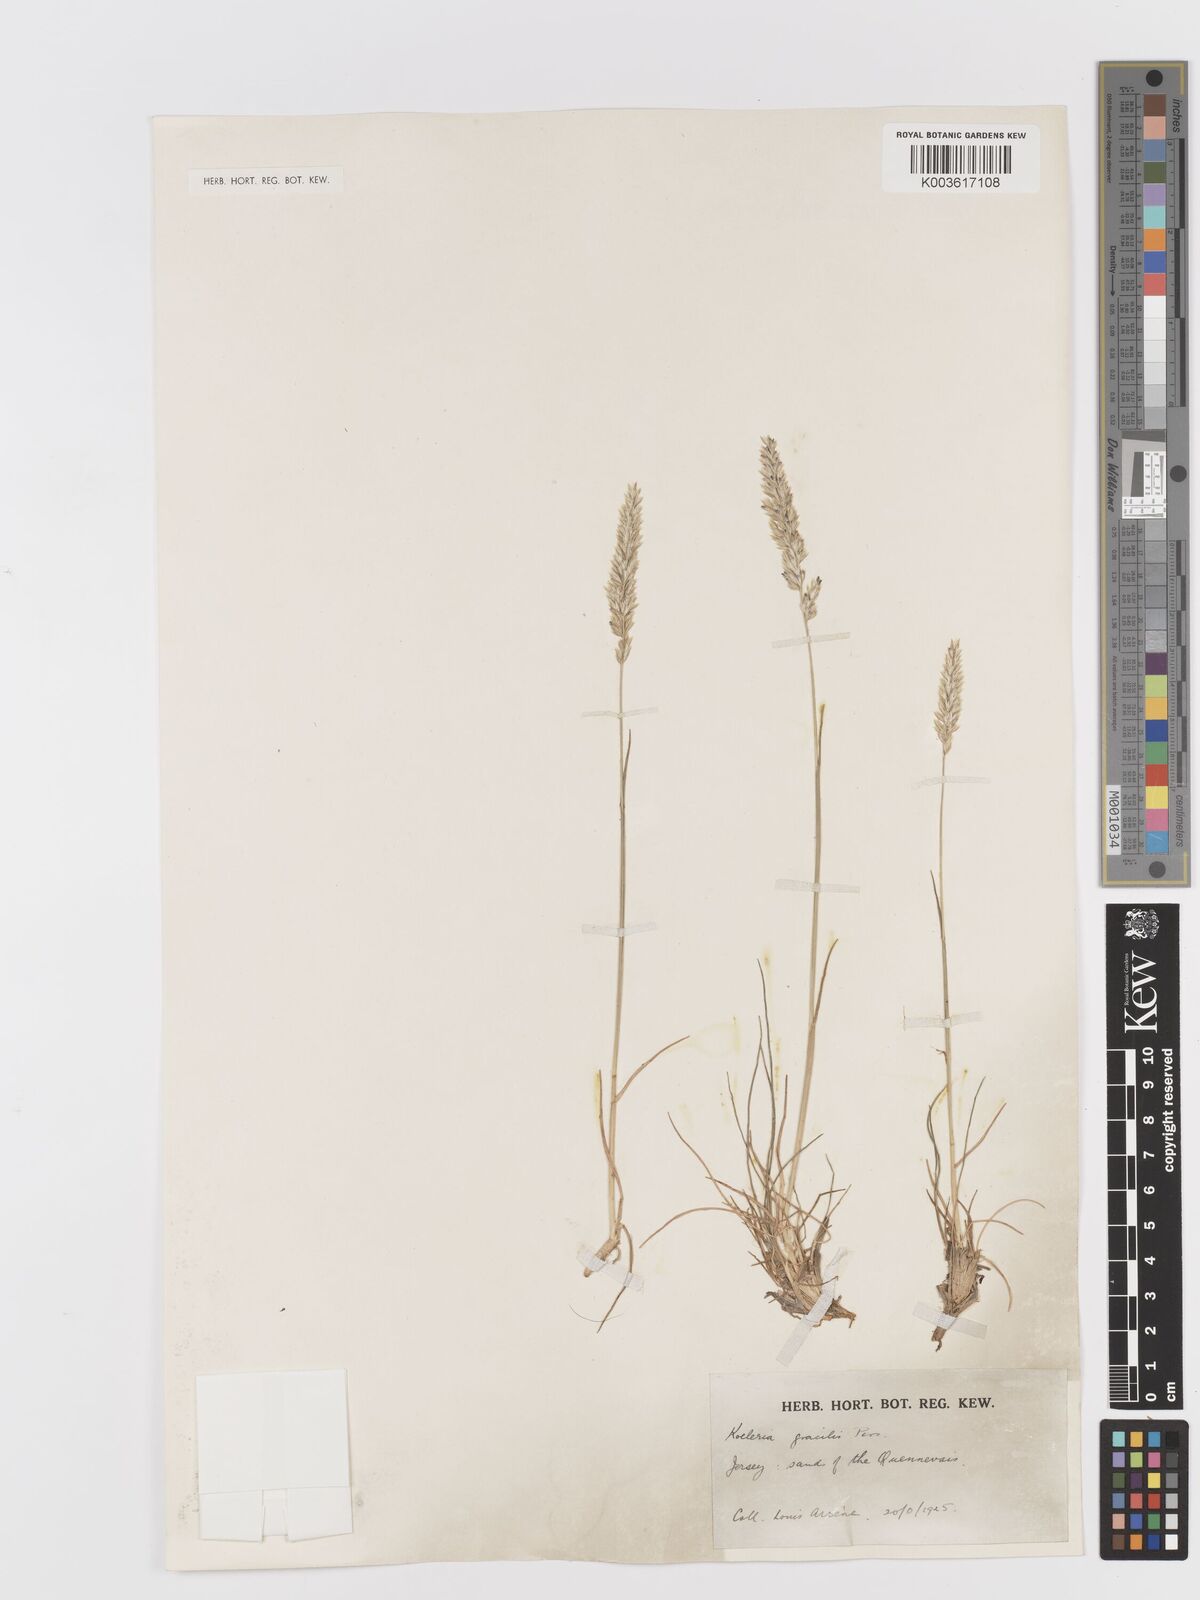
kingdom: Plantae
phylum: Tracheophyta
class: Liliopsida
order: Poales
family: Poaceae
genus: Koeleria
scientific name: Koeleria macrantha
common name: Crested hair-grass
